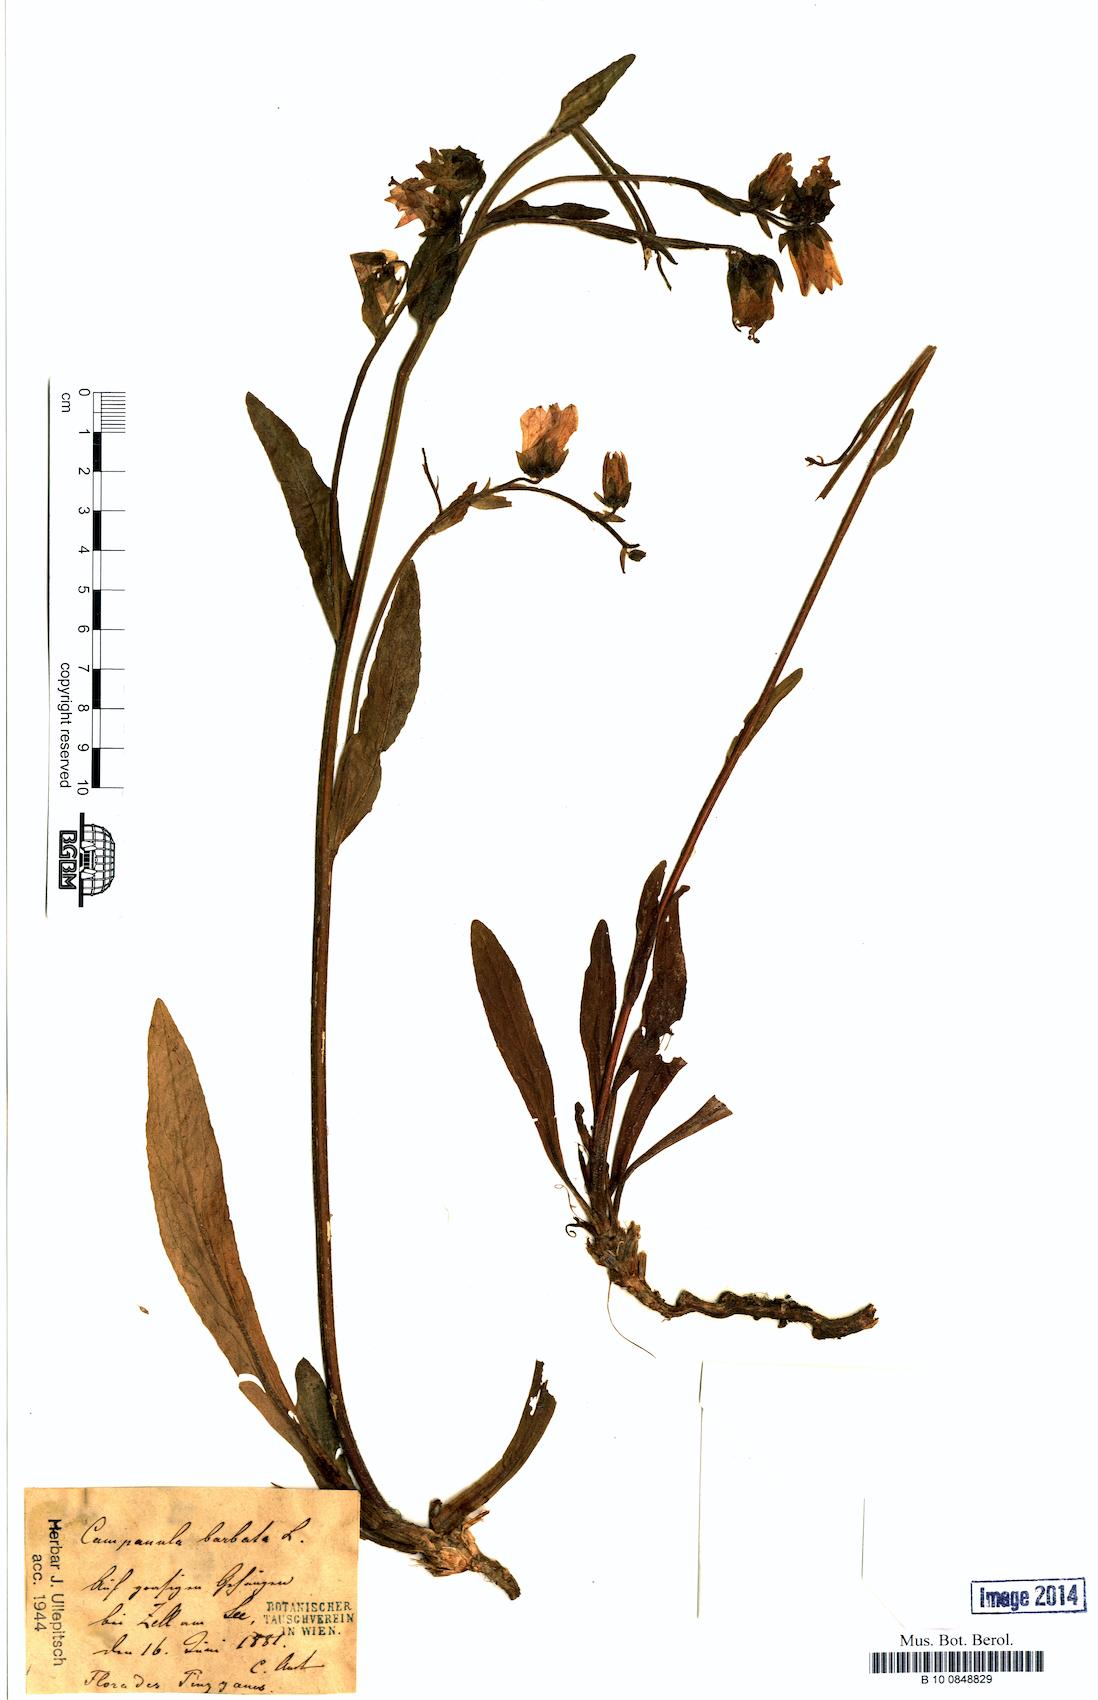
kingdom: Plantae
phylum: Tracheophyta
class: Magnoliopsida
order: Asterales
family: Campanulaceae
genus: Campanula
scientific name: Campanula barbata
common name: Bearded bellflower
